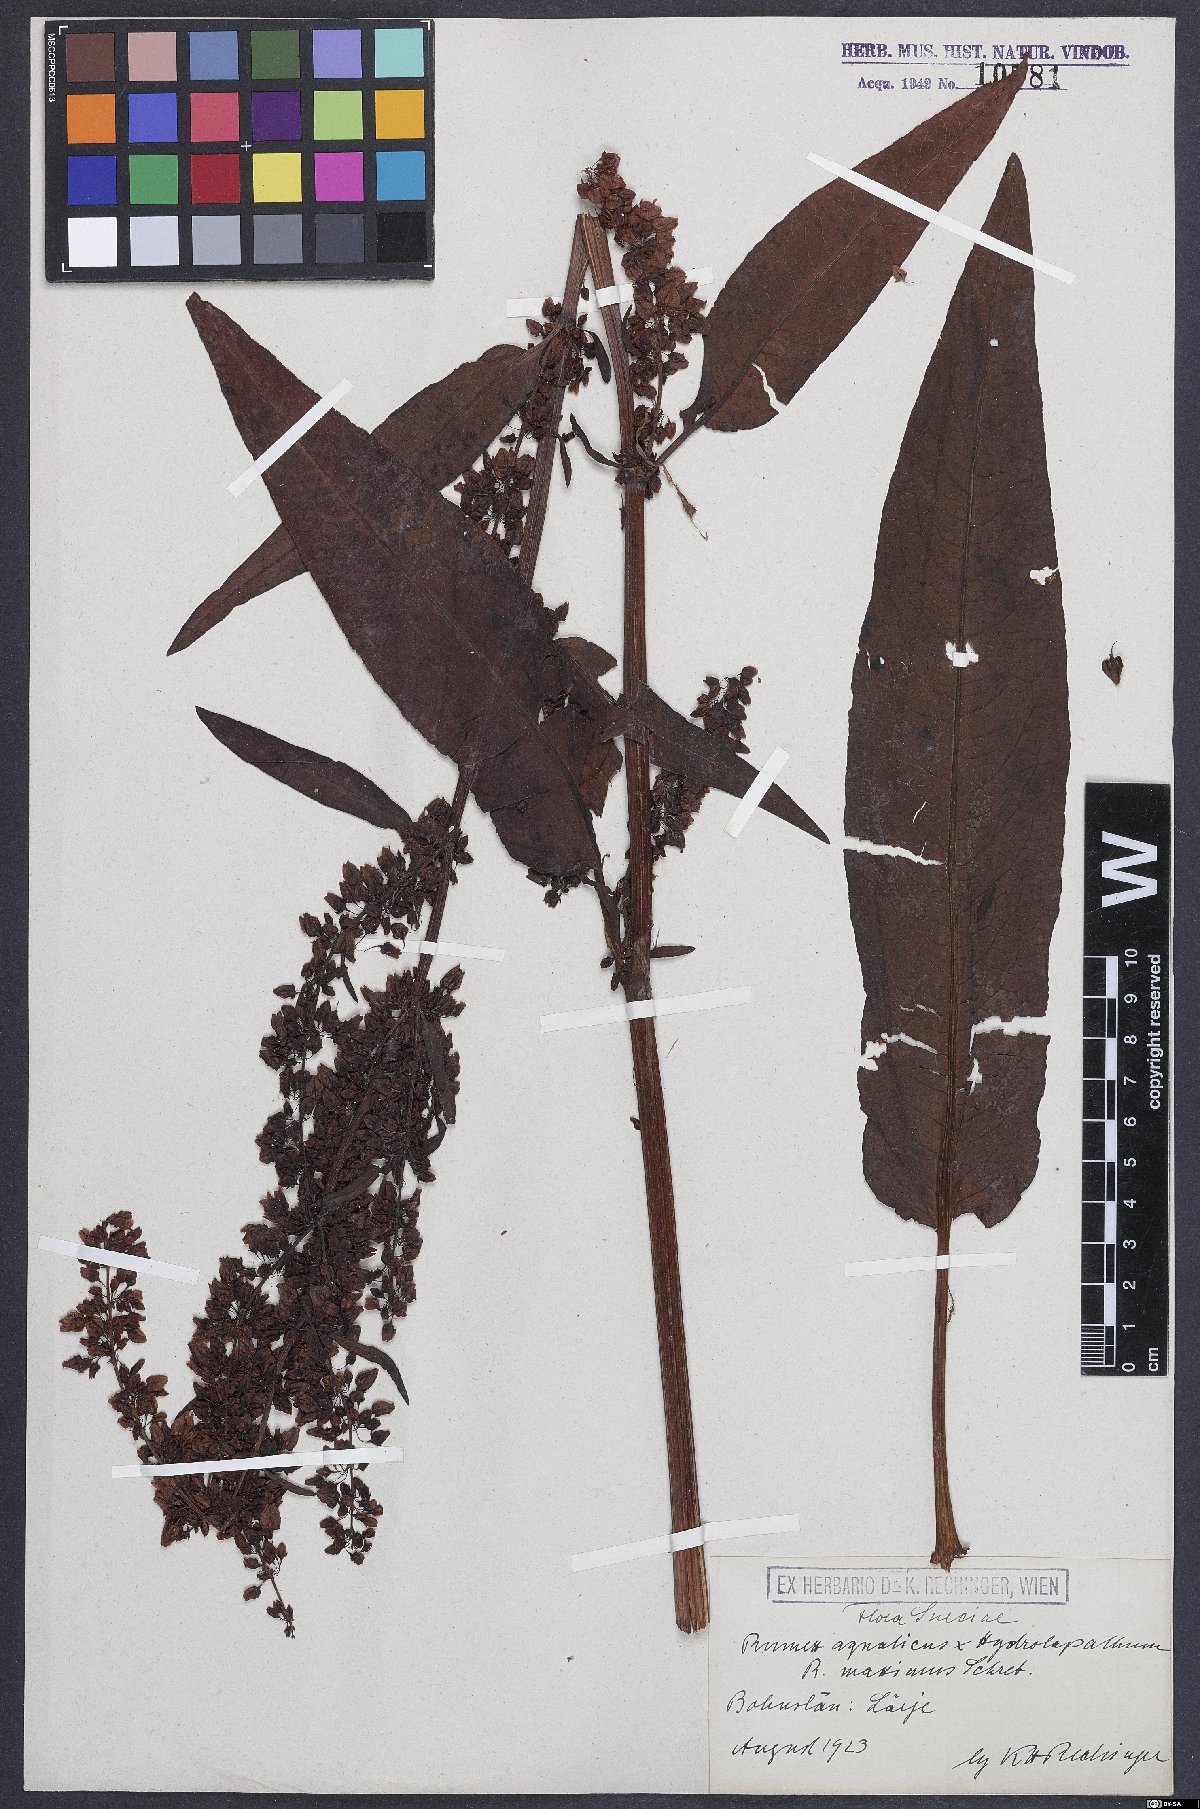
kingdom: Plantae
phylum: Tracheophyta
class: Magnoliopsida
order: Caryophyllales
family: Polygonaceae
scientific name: Polygonaceae
